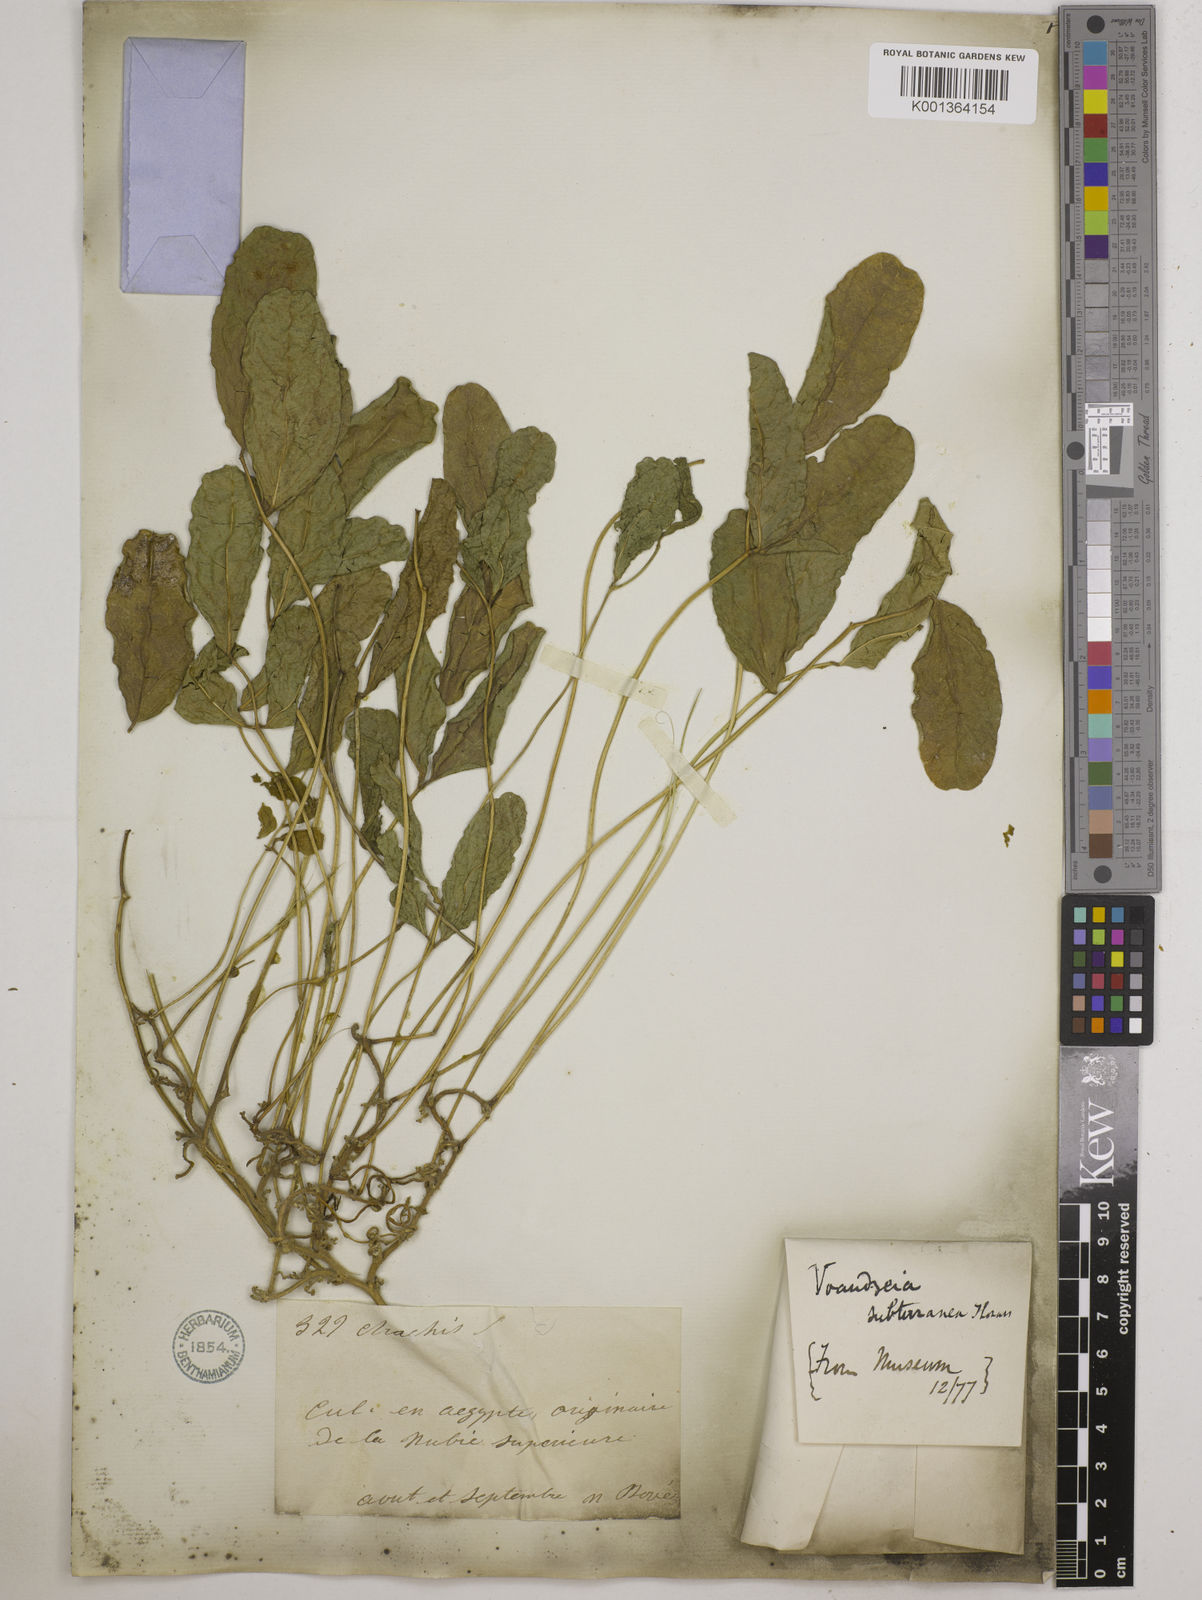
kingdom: Plantae
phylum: Tracheophyta
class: Magnoliopsida
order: Fabales
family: Fabaceae
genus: Vigna
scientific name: Vigna subterranea
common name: Bambara groundnut
